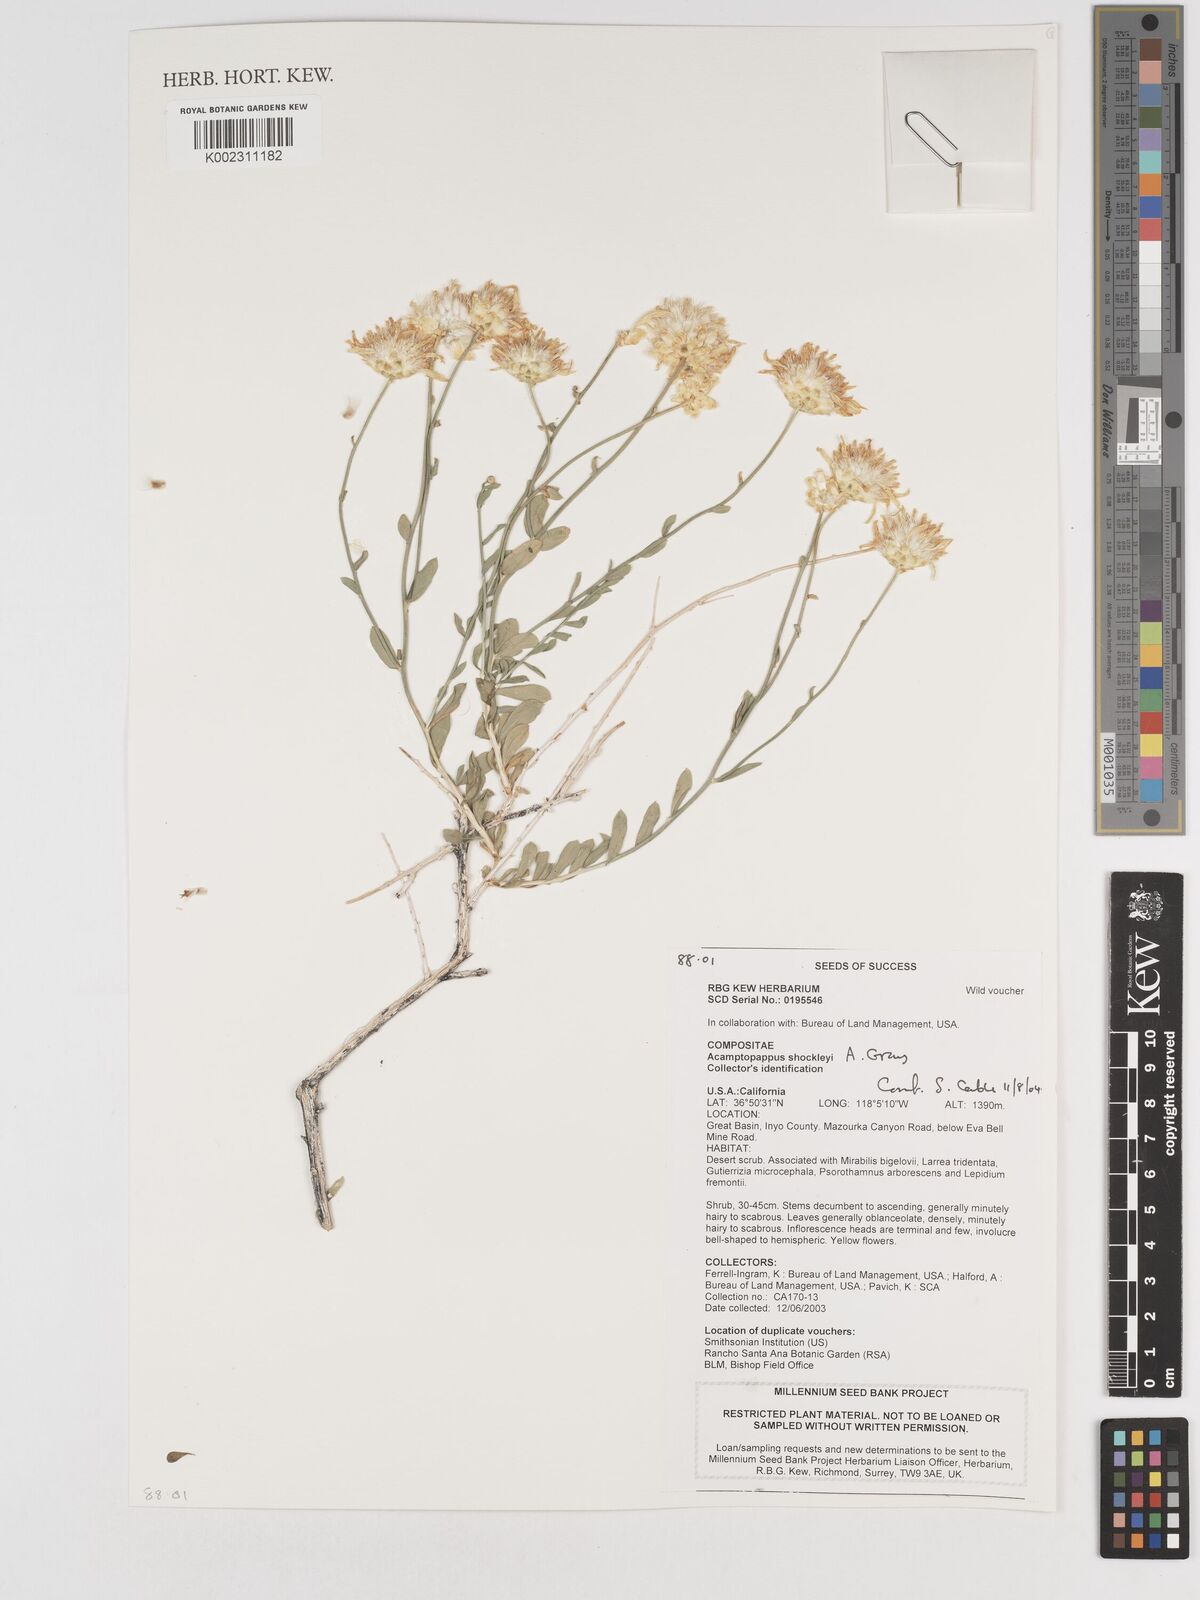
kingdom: Plantae
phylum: Tracheophyta
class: Magnoliopsida
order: Asterales
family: Asteraceae
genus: Acamptopappus
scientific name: Acamptopappus shockleyi
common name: Shockley's goldenhead
